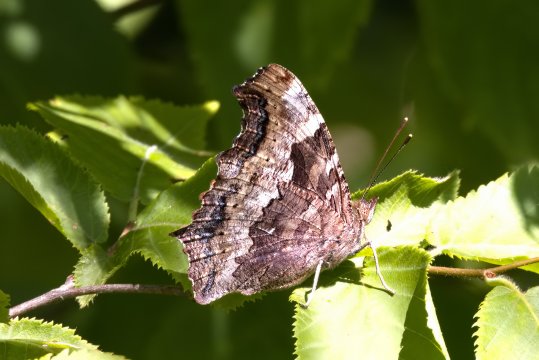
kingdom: Animalia
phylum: Arthropoda
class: Insecta
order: Lepidoptera
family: Nymphalidae
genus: Polygonia
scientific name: Polygonia vaualbum
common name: Compton Tortoiseshell
